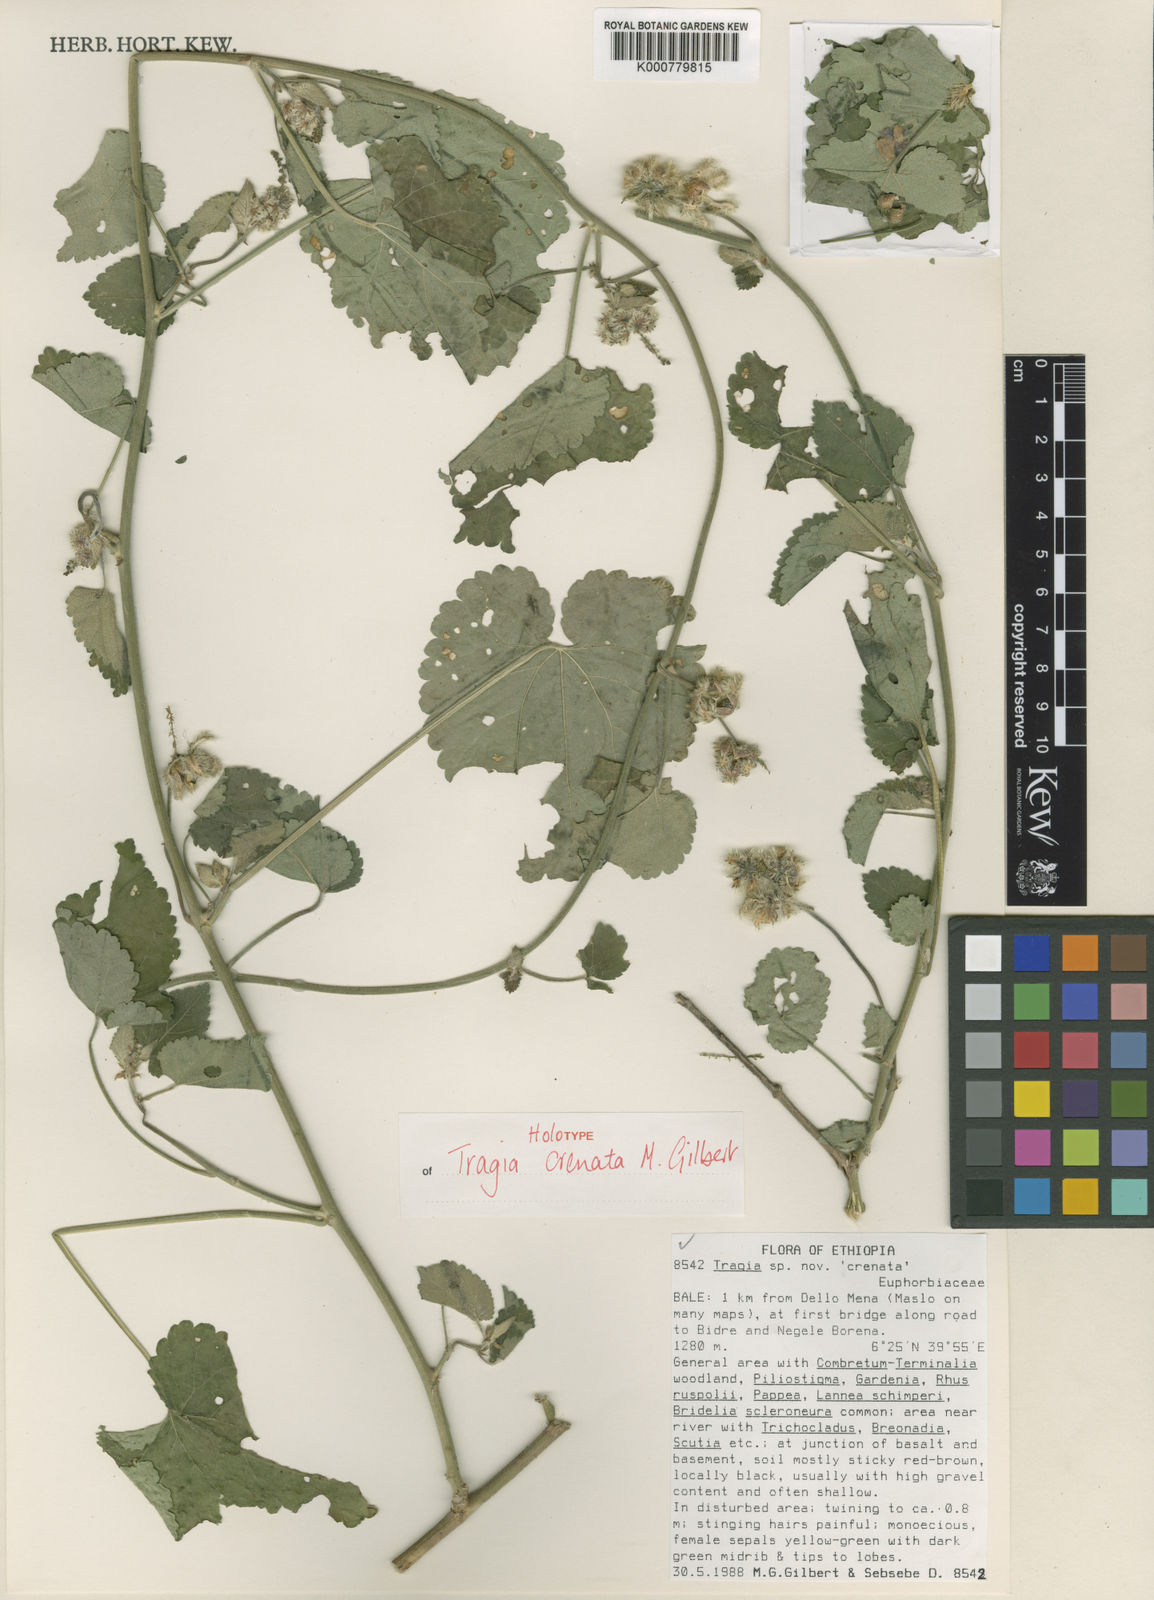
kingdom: Plantae
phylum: Tracheophyta
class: Magnoliopsida
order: Malpighiales
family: Euphorbiaceae
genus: Tragia
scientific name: Tragia crenata
